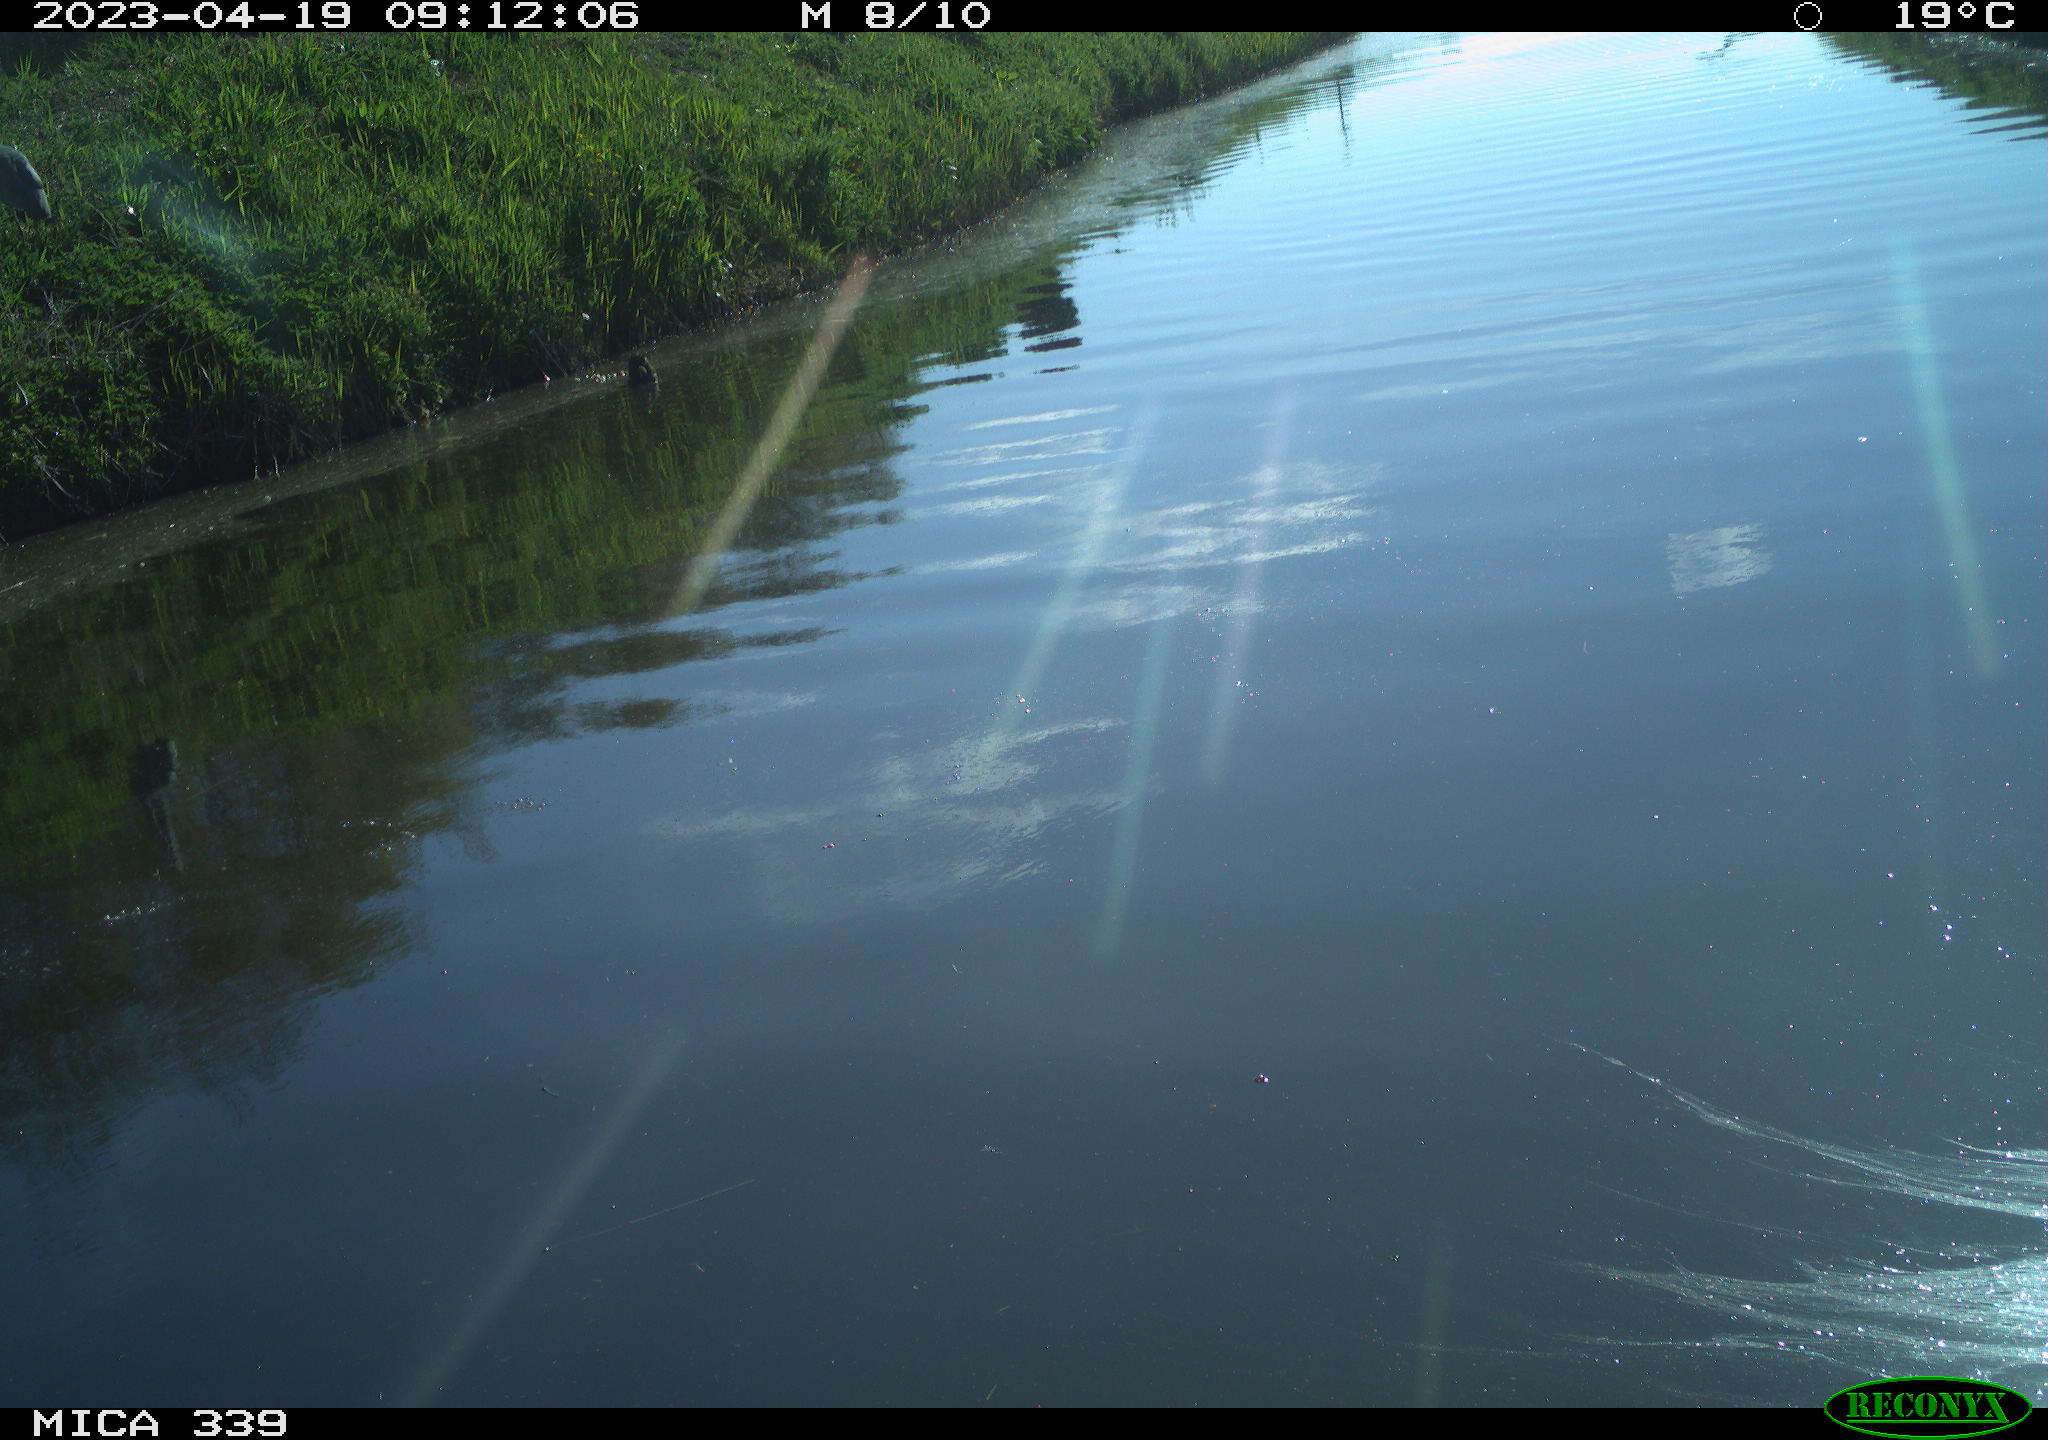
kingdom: Animalia
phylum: Chordata
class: Aves
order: Pelecaniformes
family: Ardeidae
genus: Ardea
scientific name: Ardea cinerea
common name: Grey heron
